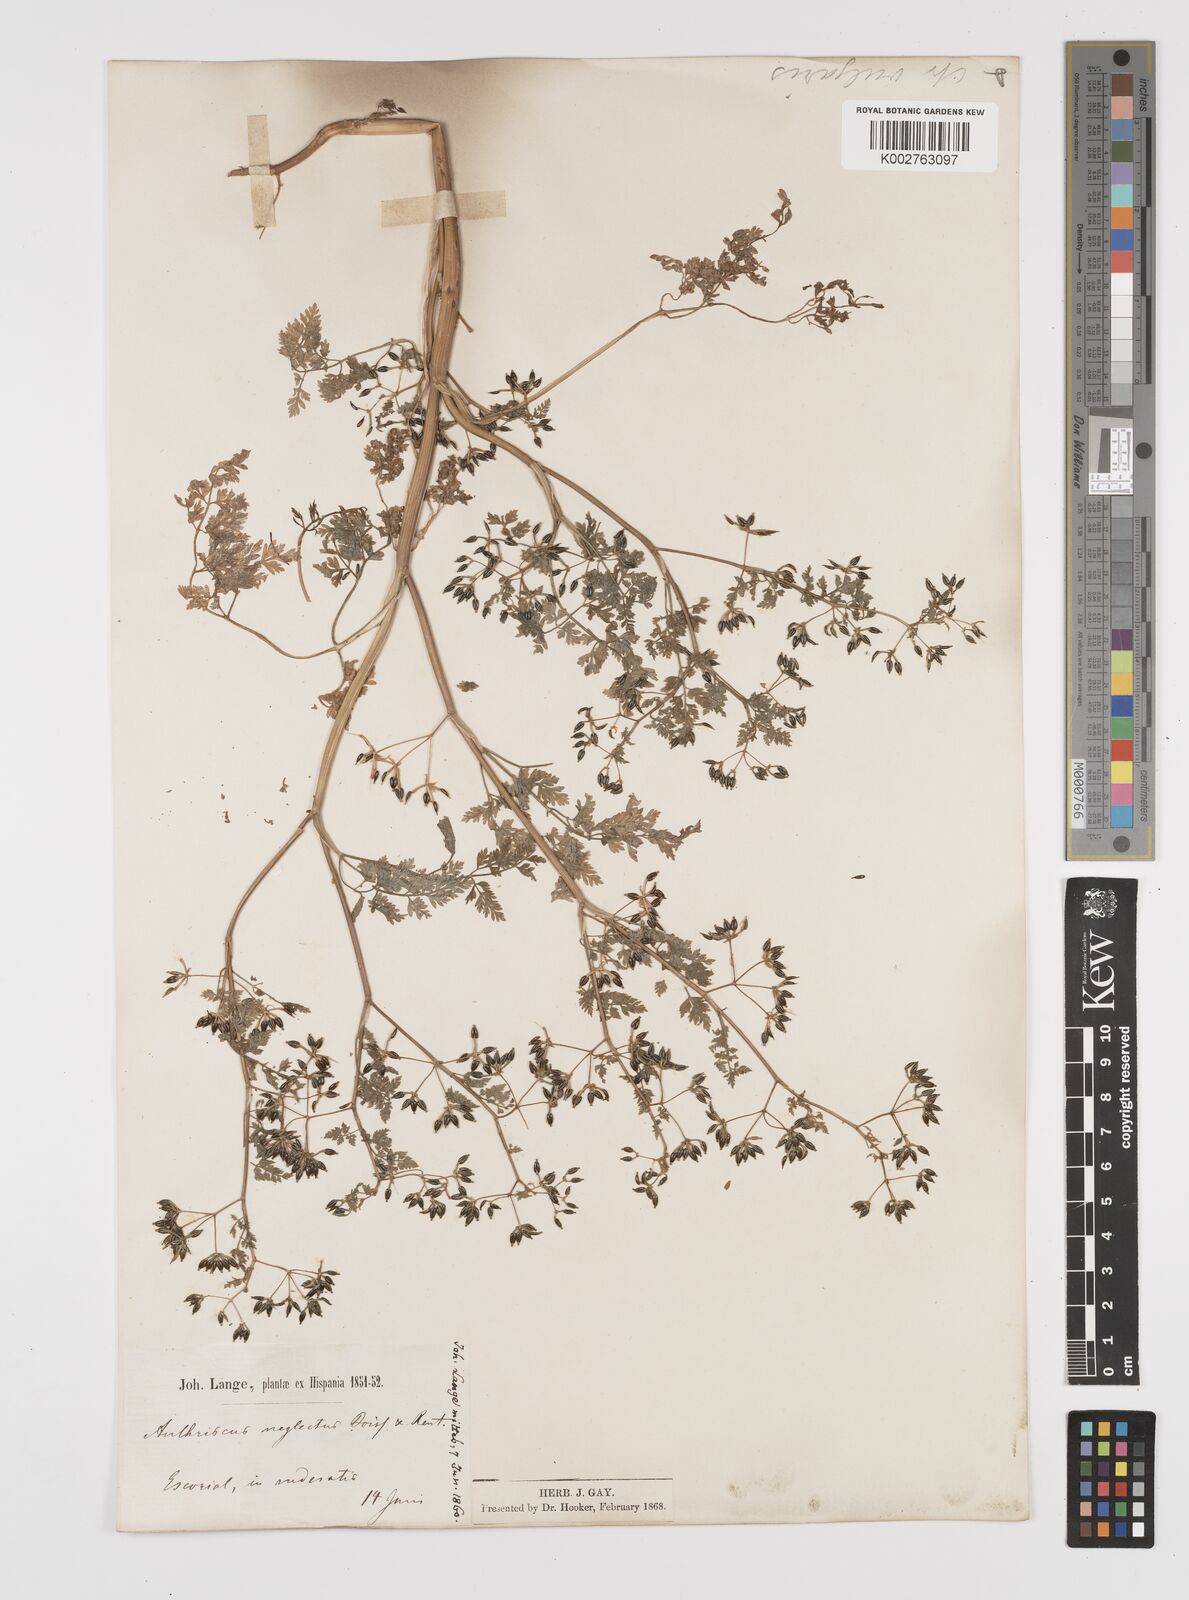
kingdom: Plantae
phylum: Tracheophyta
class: Magnoliopsida
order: Apiales
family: Apiaceae
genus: Anthriscus
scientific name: Anthriscus caucalis
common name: Bur chervil
